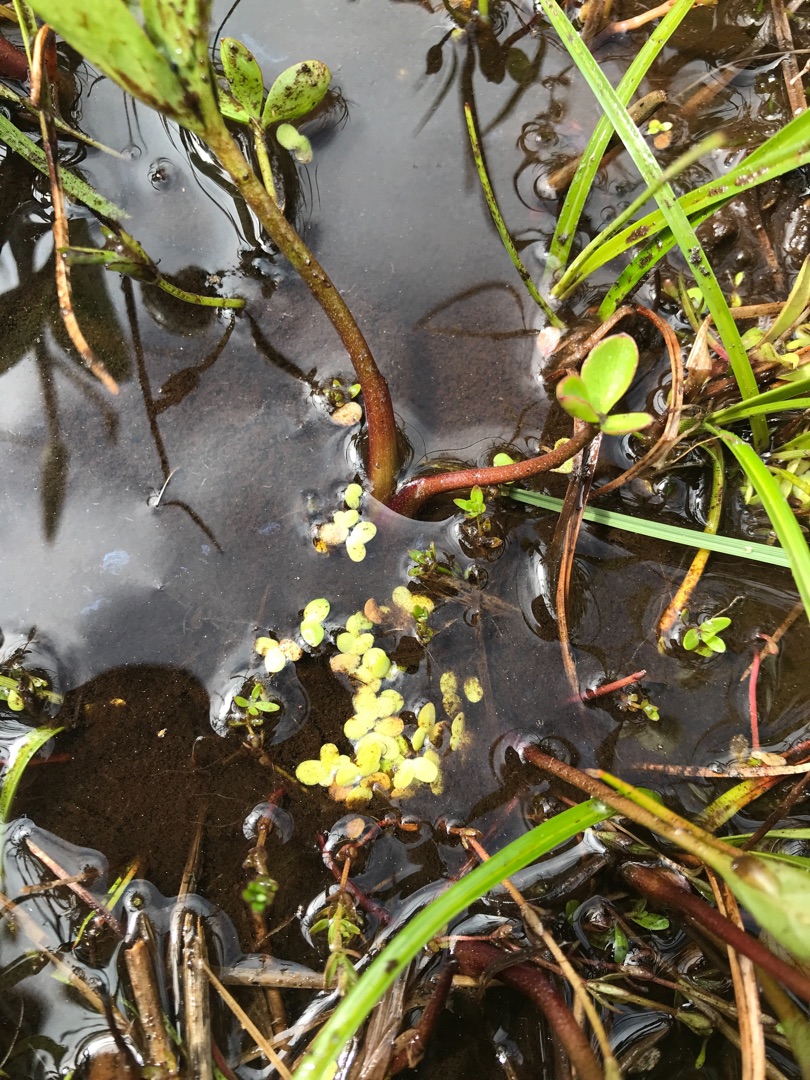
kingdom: Plantae
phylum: Tracheophyta
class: Liliopsida
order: Alismatales
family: Araceae
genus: Lemna
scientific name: Lemna minor
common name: Liden andemad
